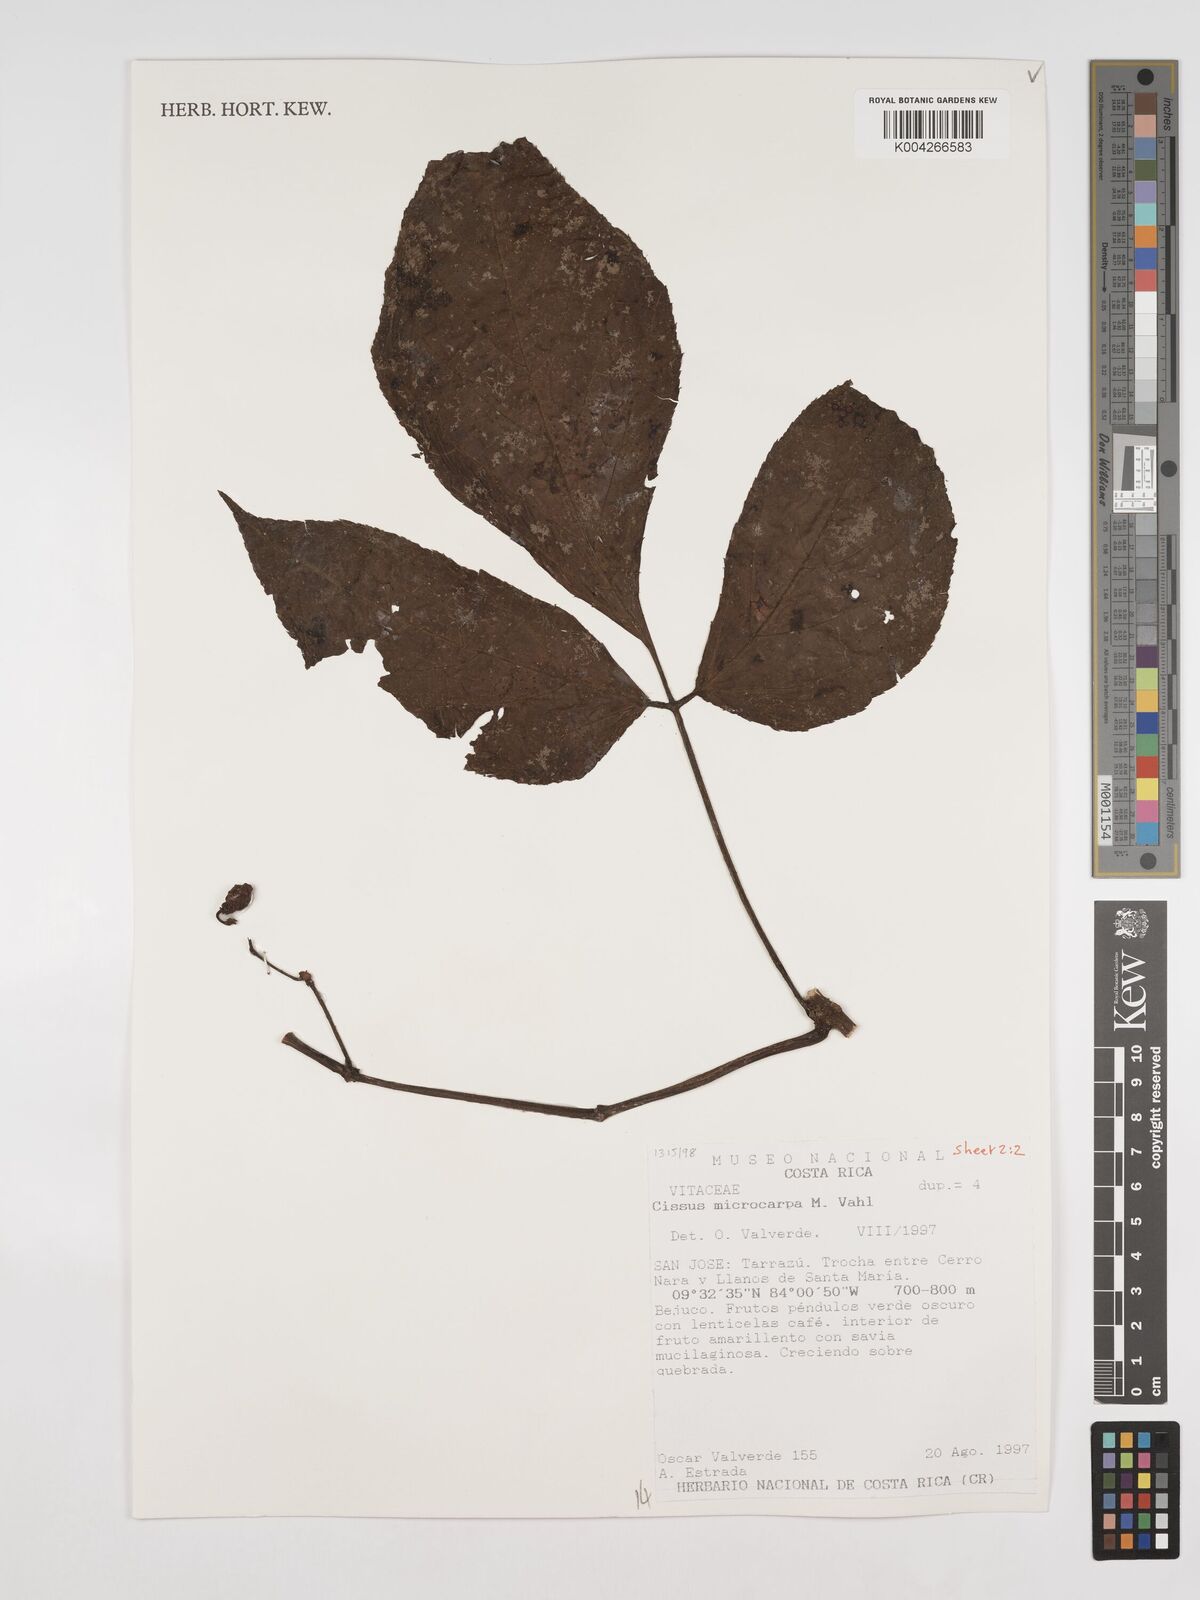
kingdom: Plantae
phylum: Tracheophyta
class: Magnoliopsida
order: Vitales
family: Vitaceae
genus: Cissus
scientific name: Cissus microcarpa
